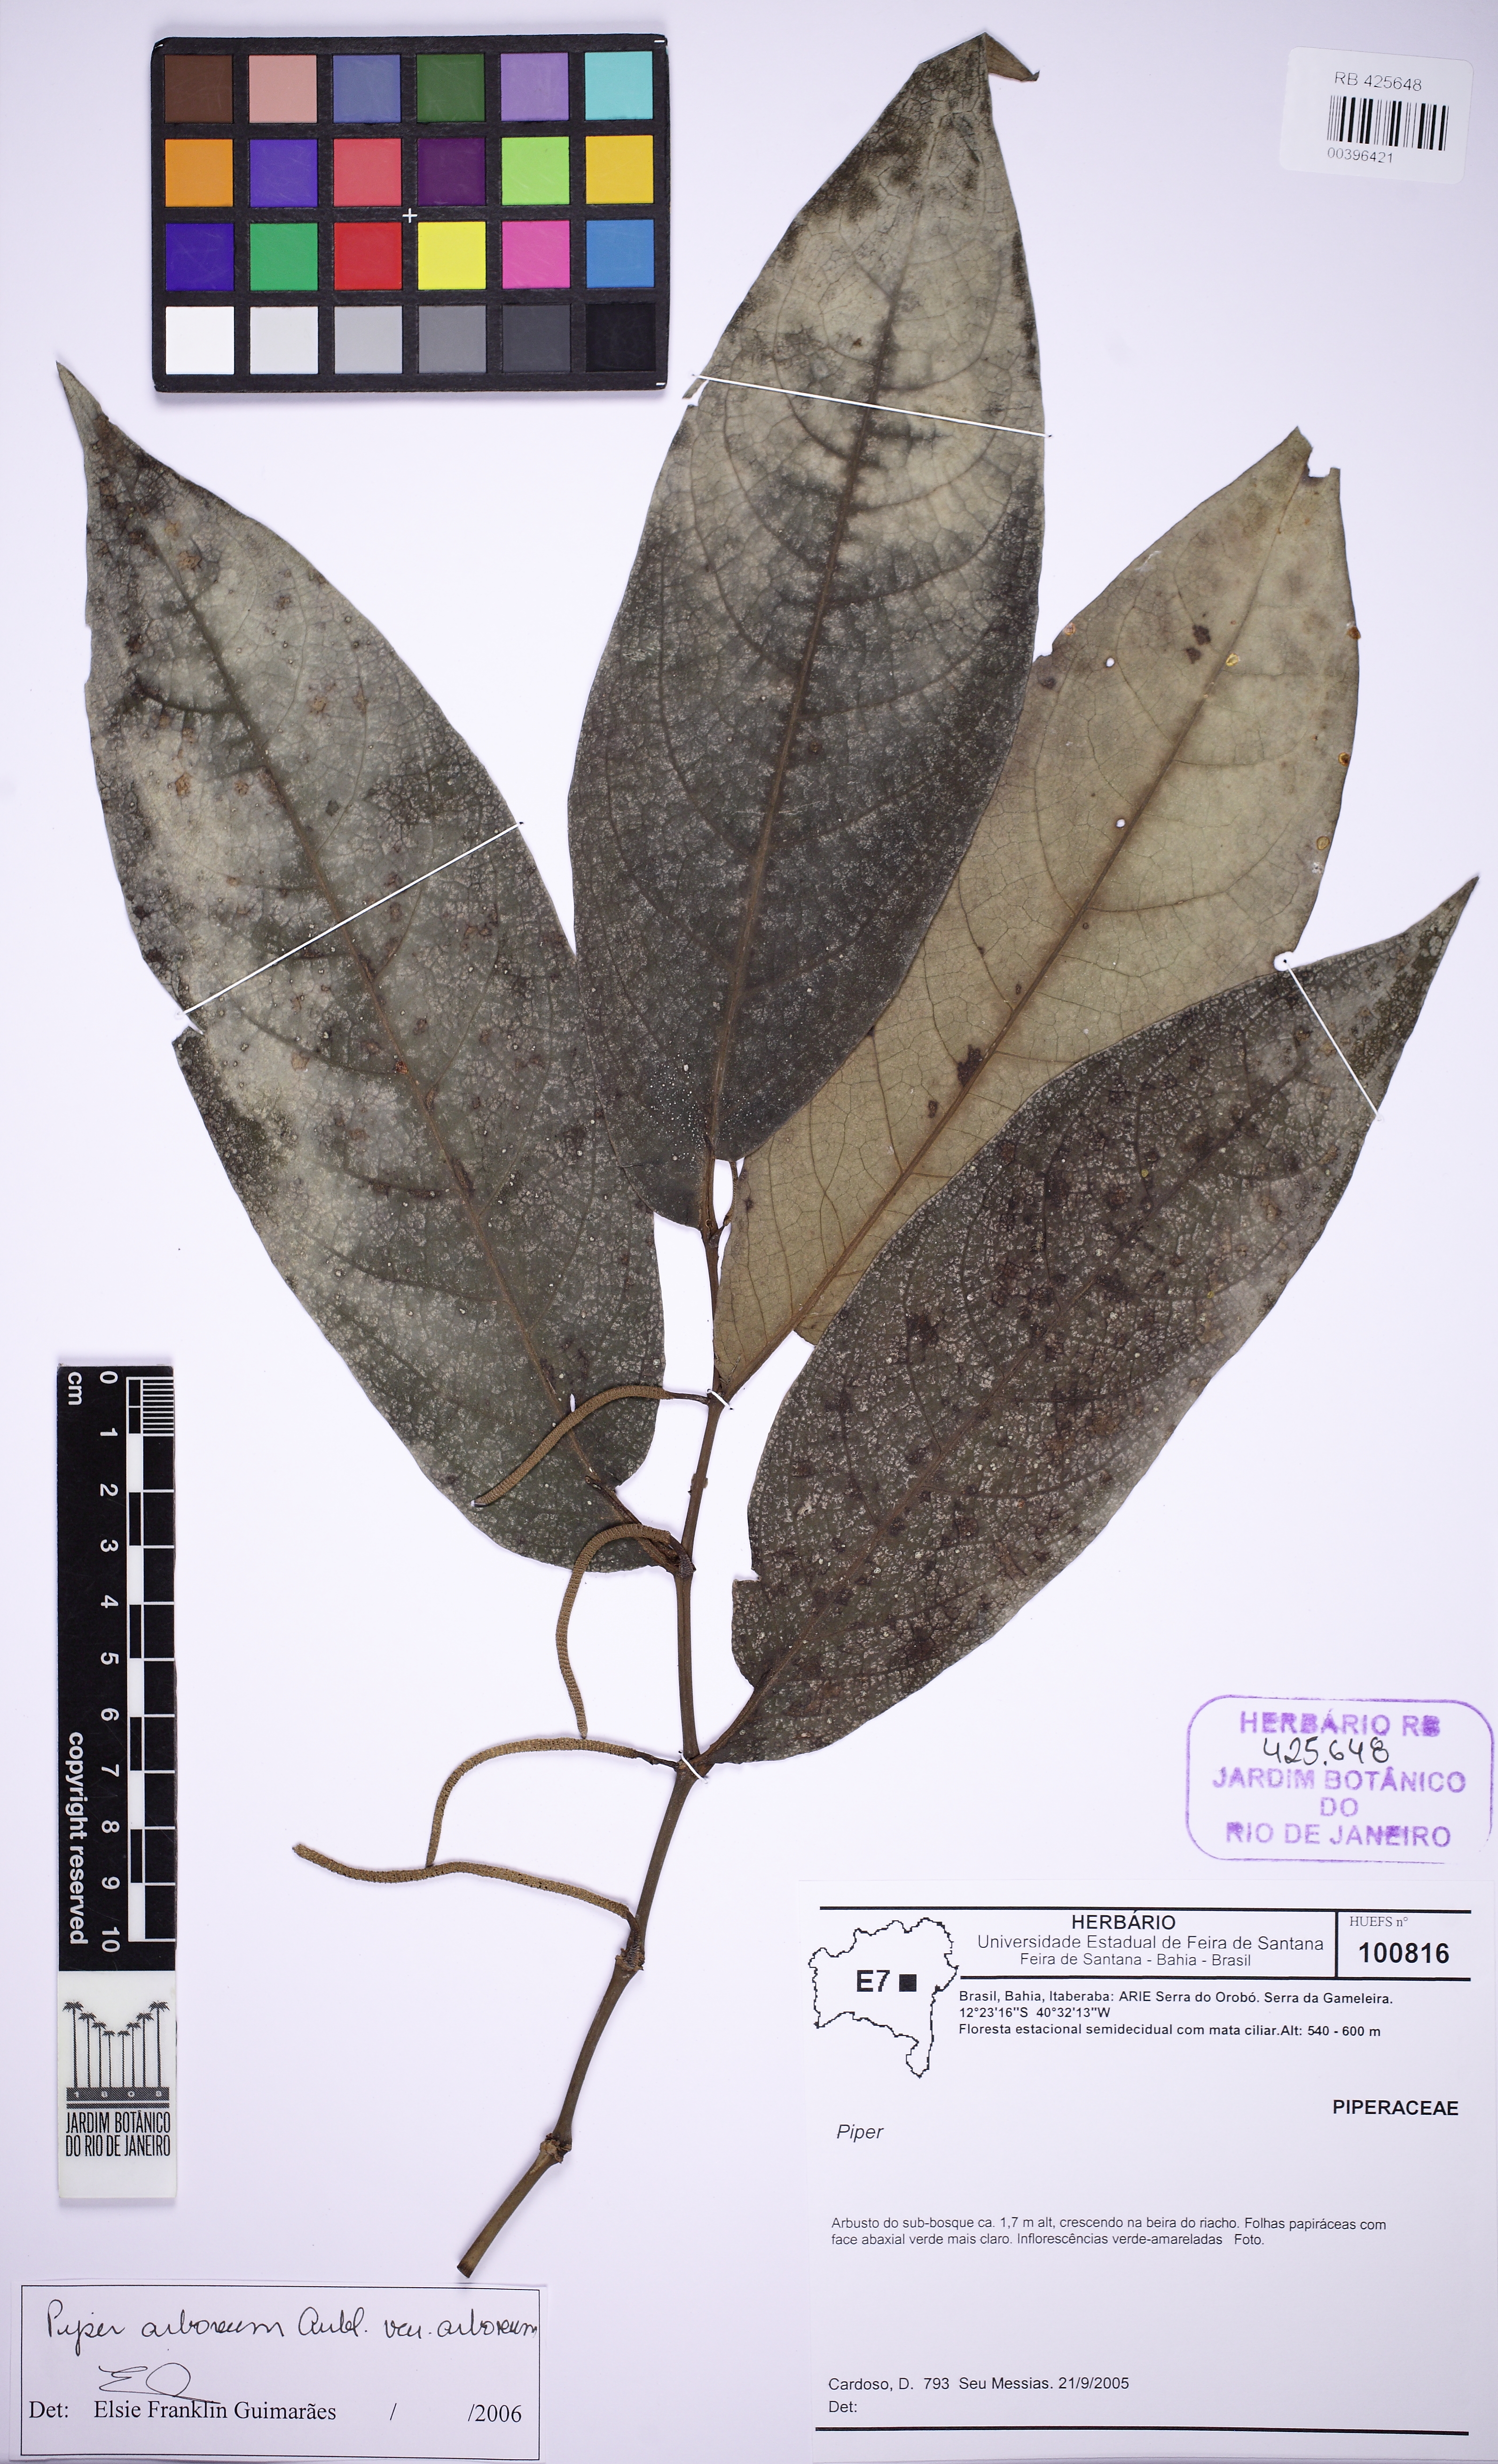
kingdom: Plantae
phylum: Tracheophyta
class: Magnoliopsida
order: Piperales
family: Piperaceae
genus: Piper
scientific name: Piper arboreum
